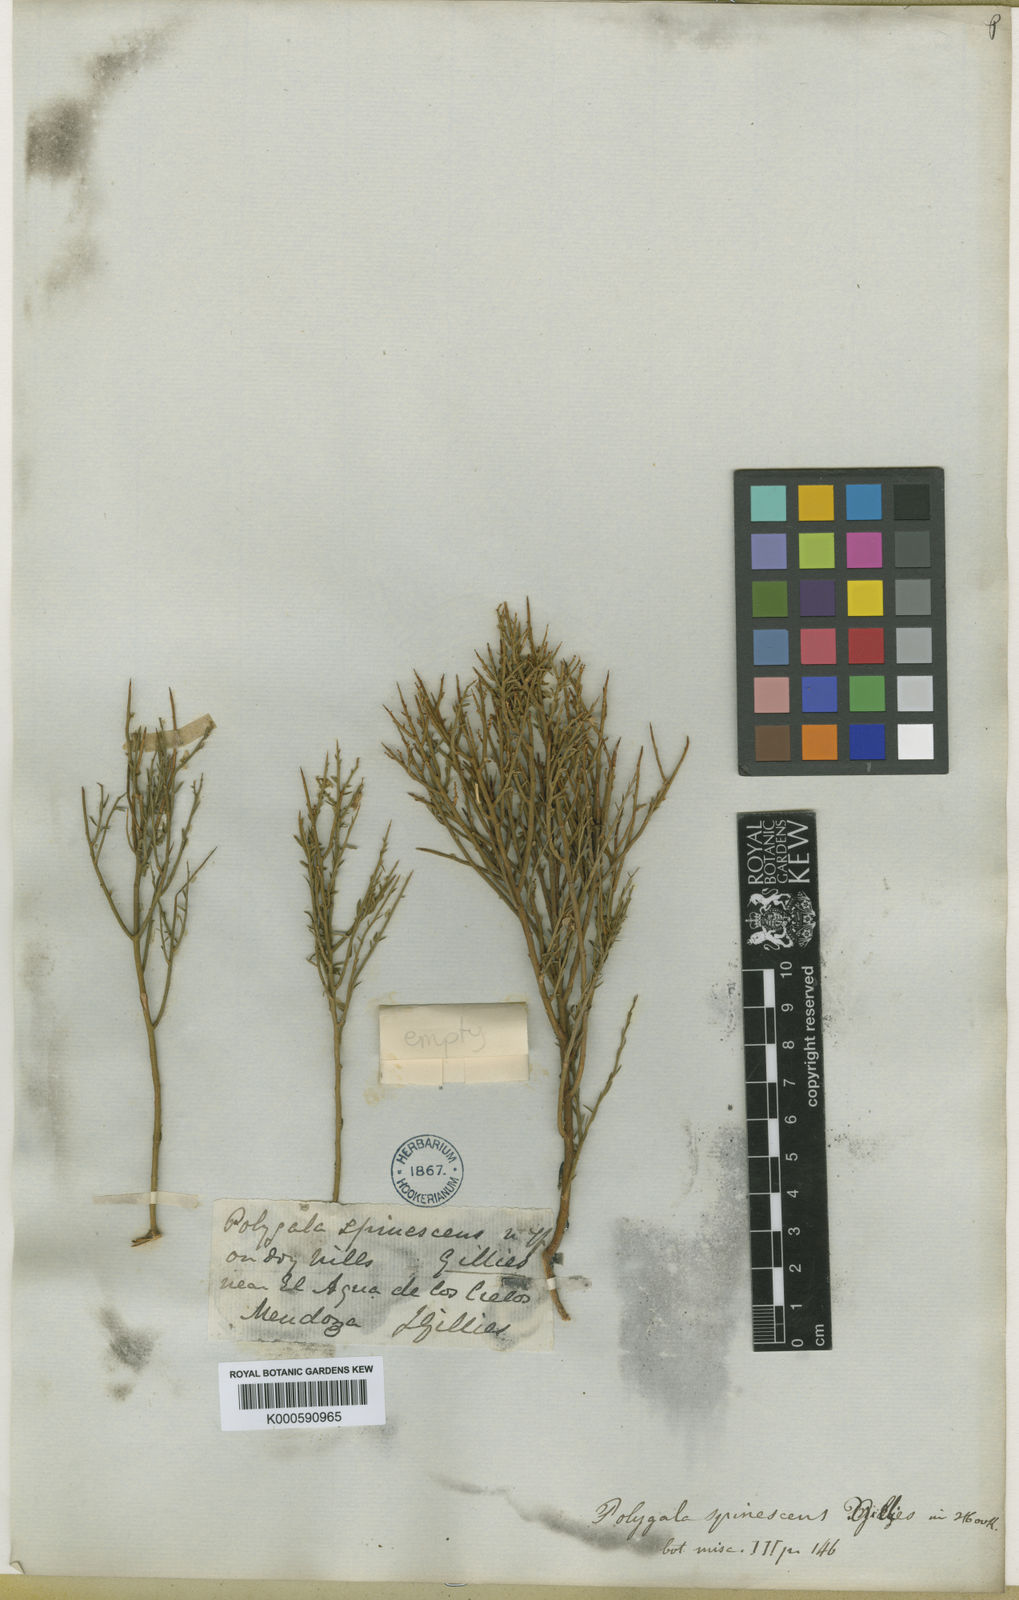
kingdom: Plantae
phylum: Tracheophyta
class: Magnoliopsida
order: Fabales
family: Polygalaceae
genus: Polygala
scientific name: Polygala spinescens
